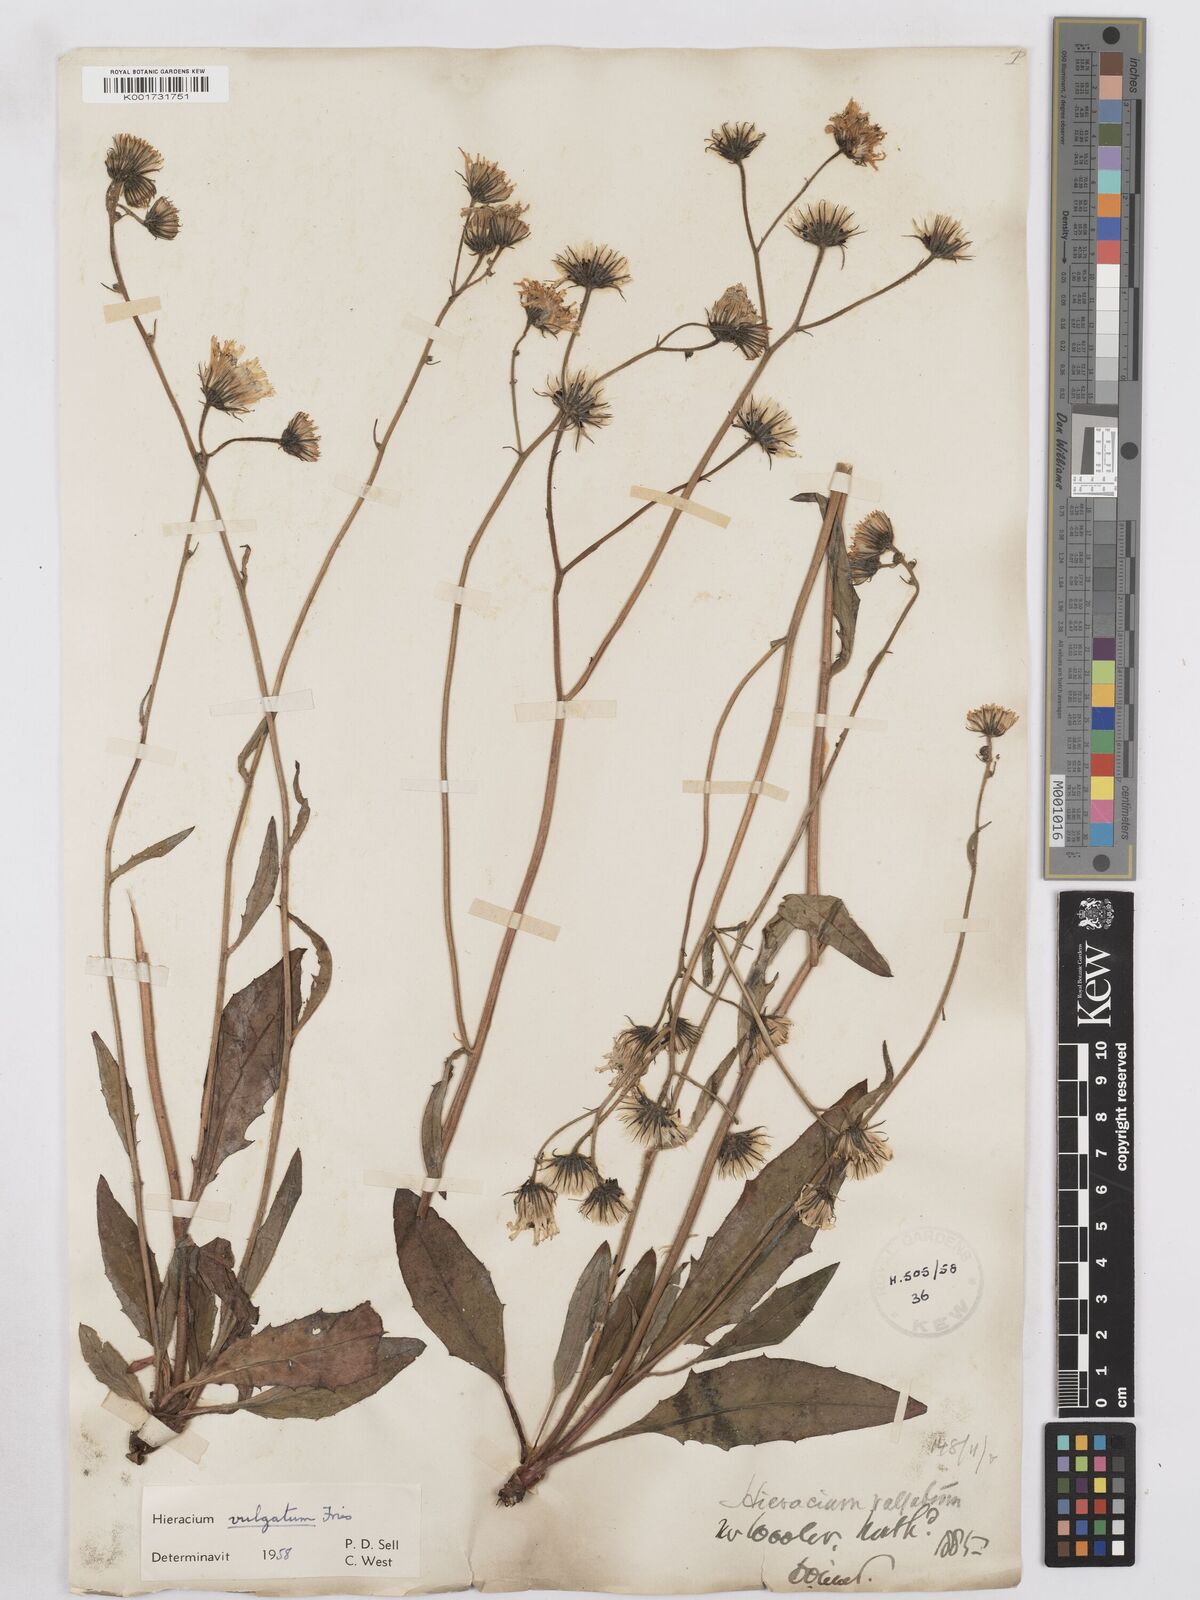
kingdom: Plantae
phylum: Tracheophyta
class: Magnoliopsida
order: Asterales
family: Asteraceae
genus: Hieracium
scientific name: Hieracium lachenalii
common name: Common hawkweed
